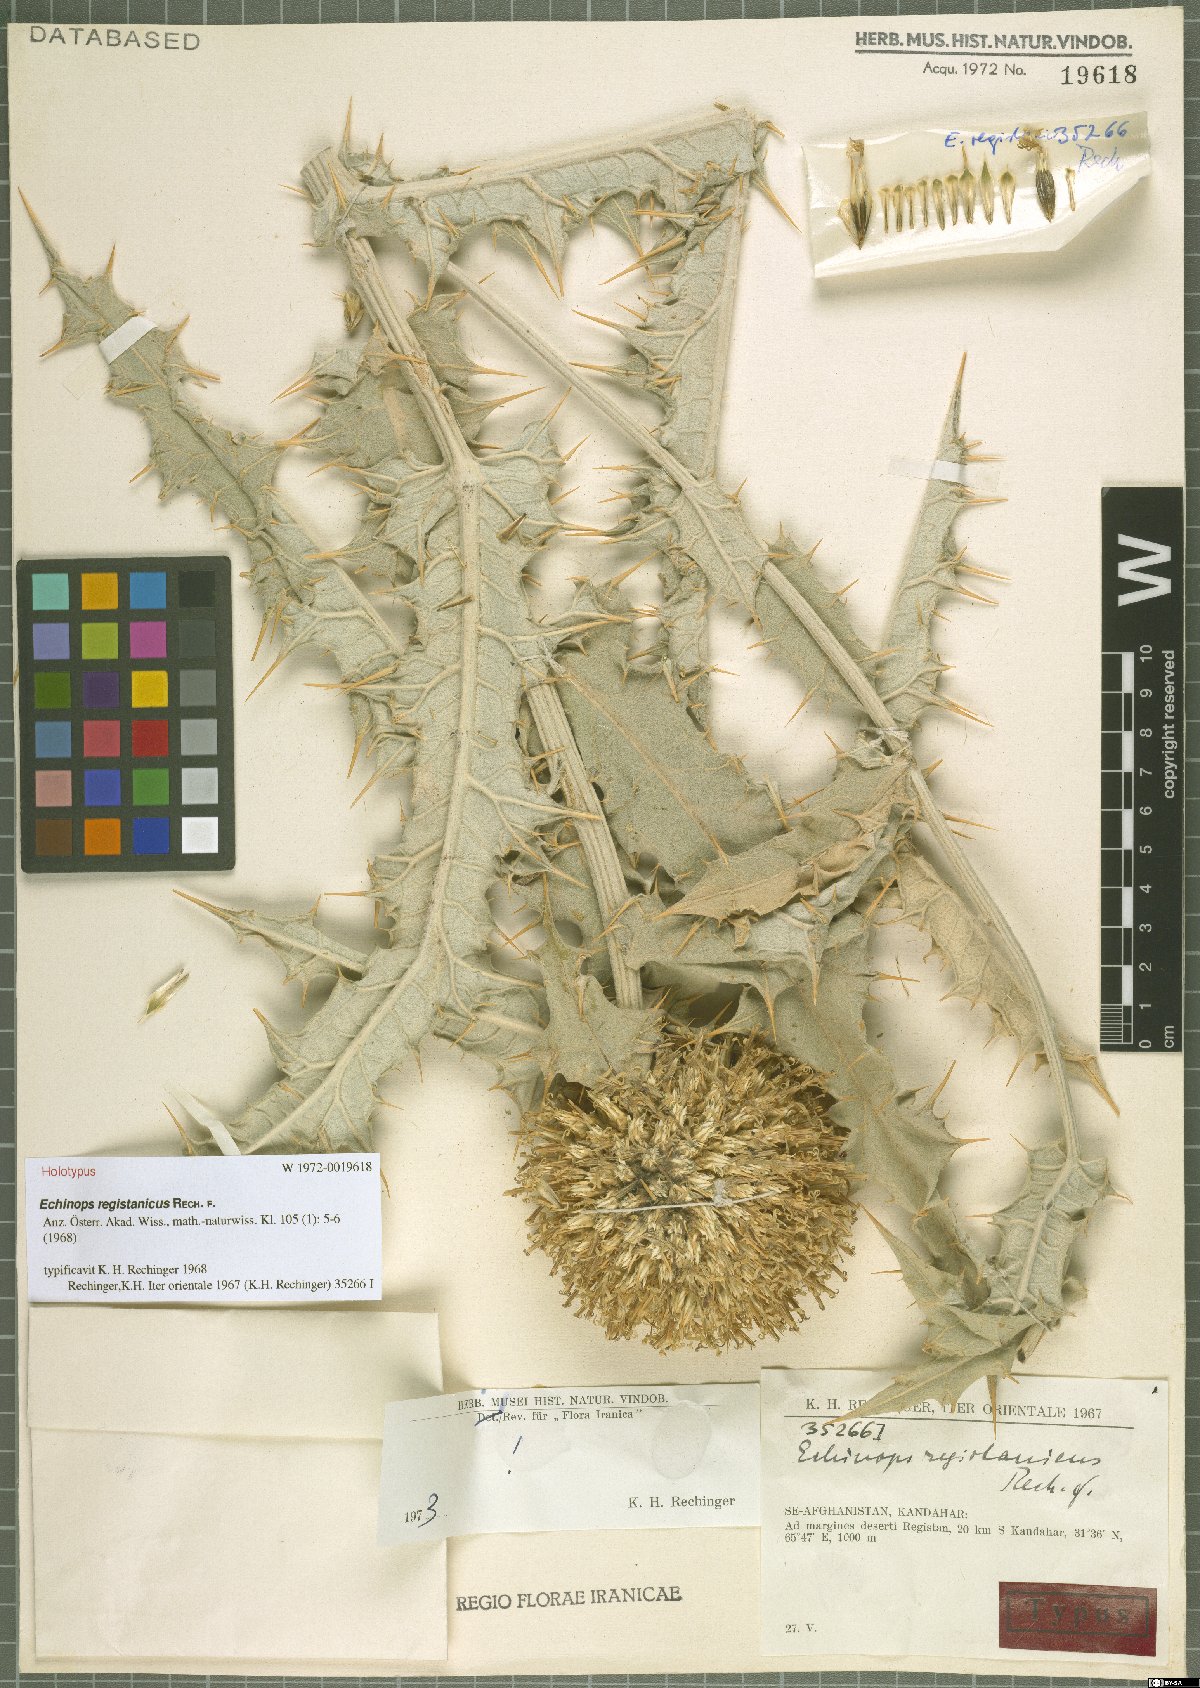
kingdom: Plantae
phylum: Tracheophyta
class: Magnoliopsida
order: Asterales
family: Asteraceae
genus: Echinops
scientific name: Echinops registanicus
